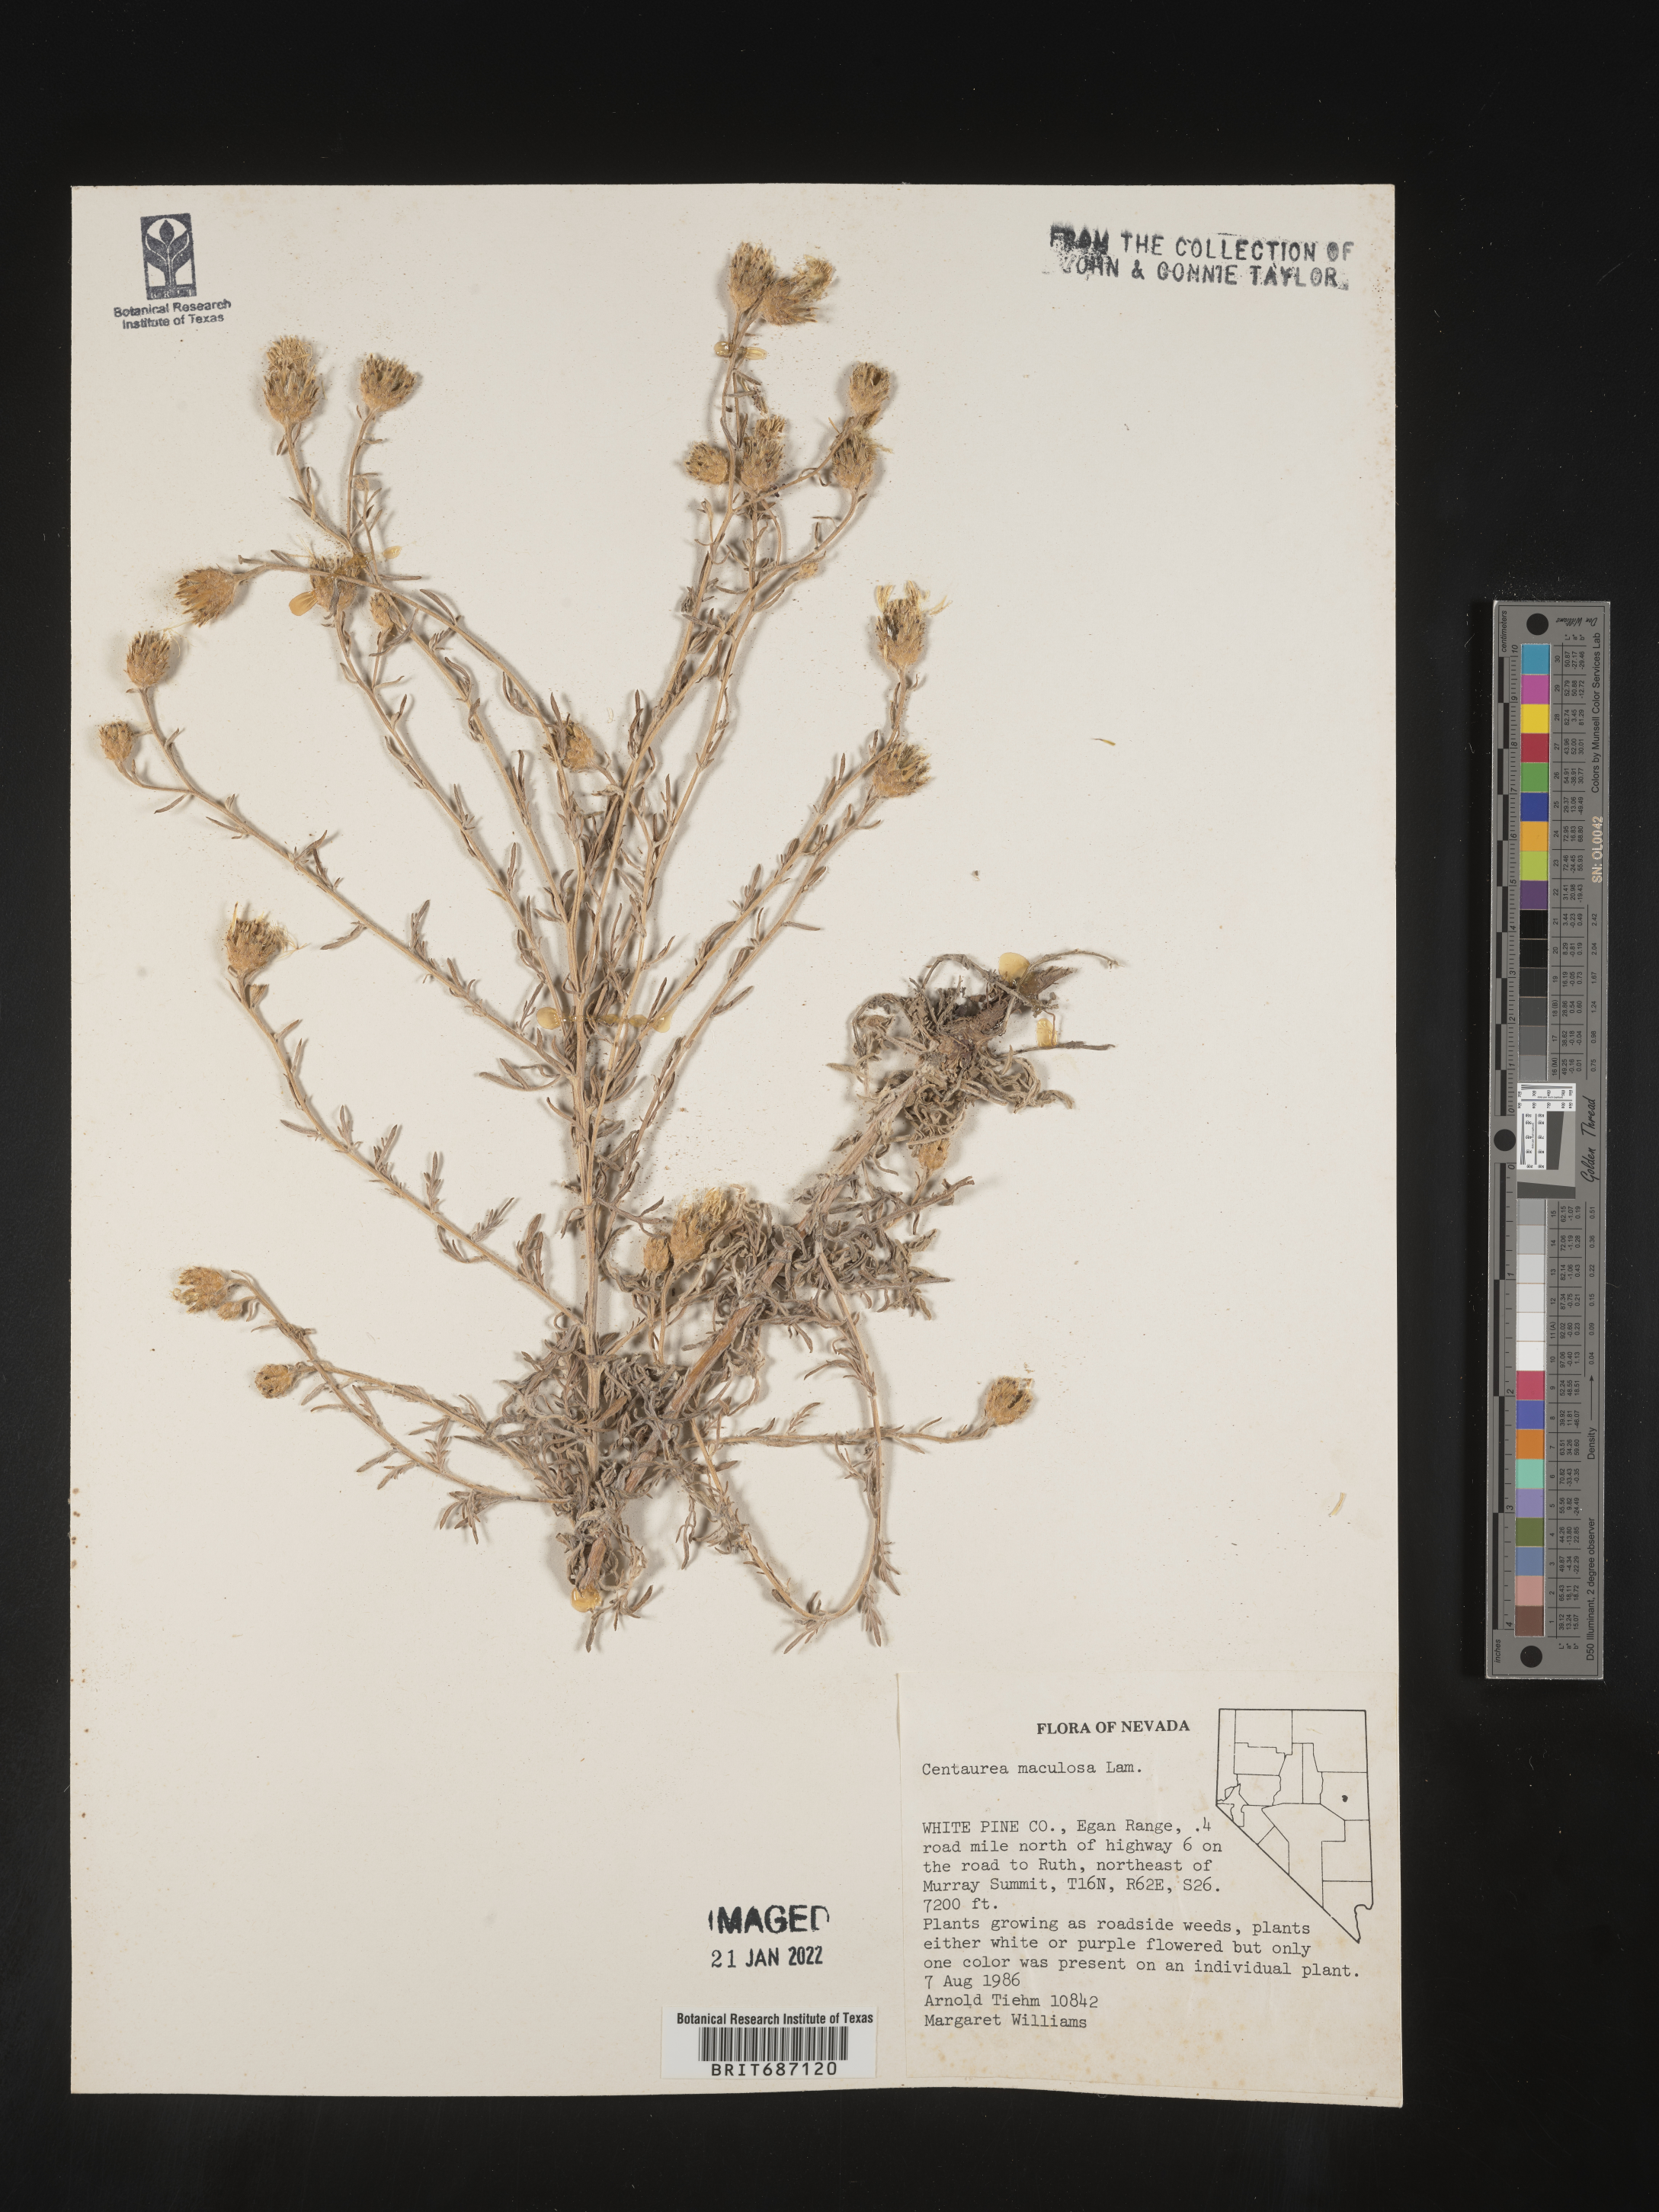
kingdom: Plantae
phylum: Tracheophyta
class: Magnoliopsida
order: Asterales
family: Asteraceae
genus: Centaurea
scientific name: Centaurea stoebe
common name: Spotted knapweed
